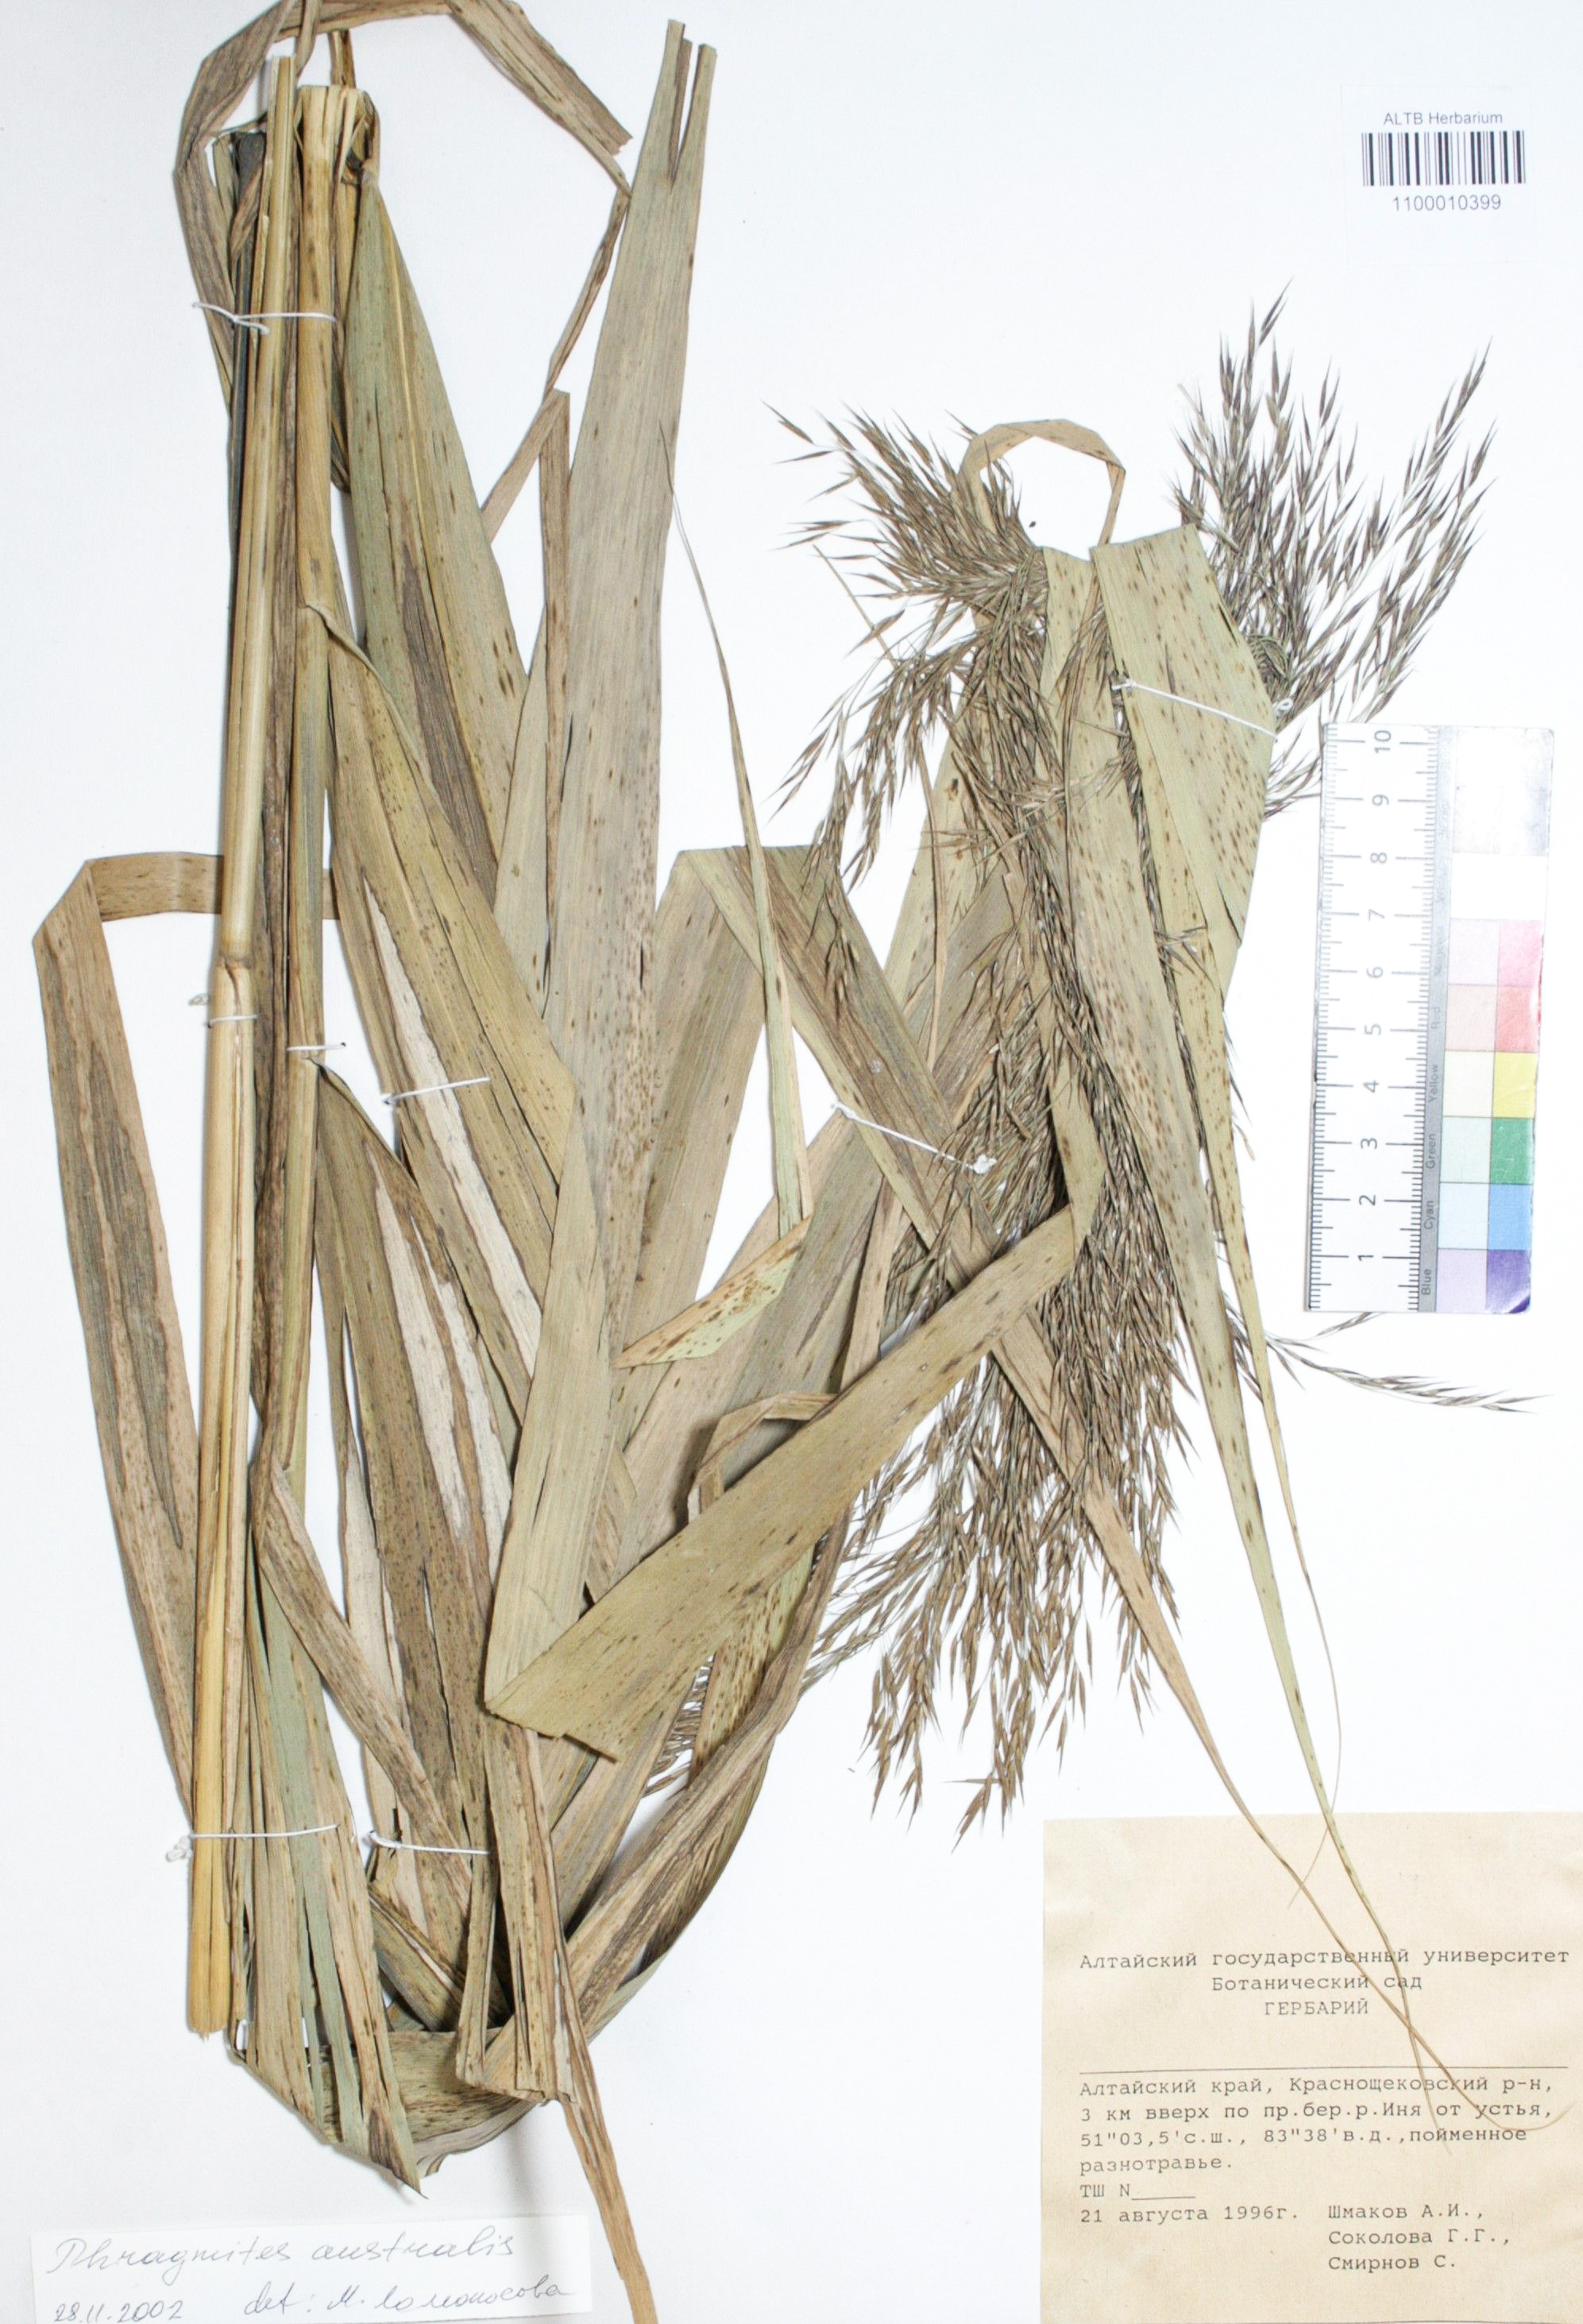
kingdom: Plantae
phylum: Tracheophyta
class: Liliopsida
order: Poales
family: Poaceae
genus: Phragmites
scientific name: Phragmites australis
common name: Common reed
